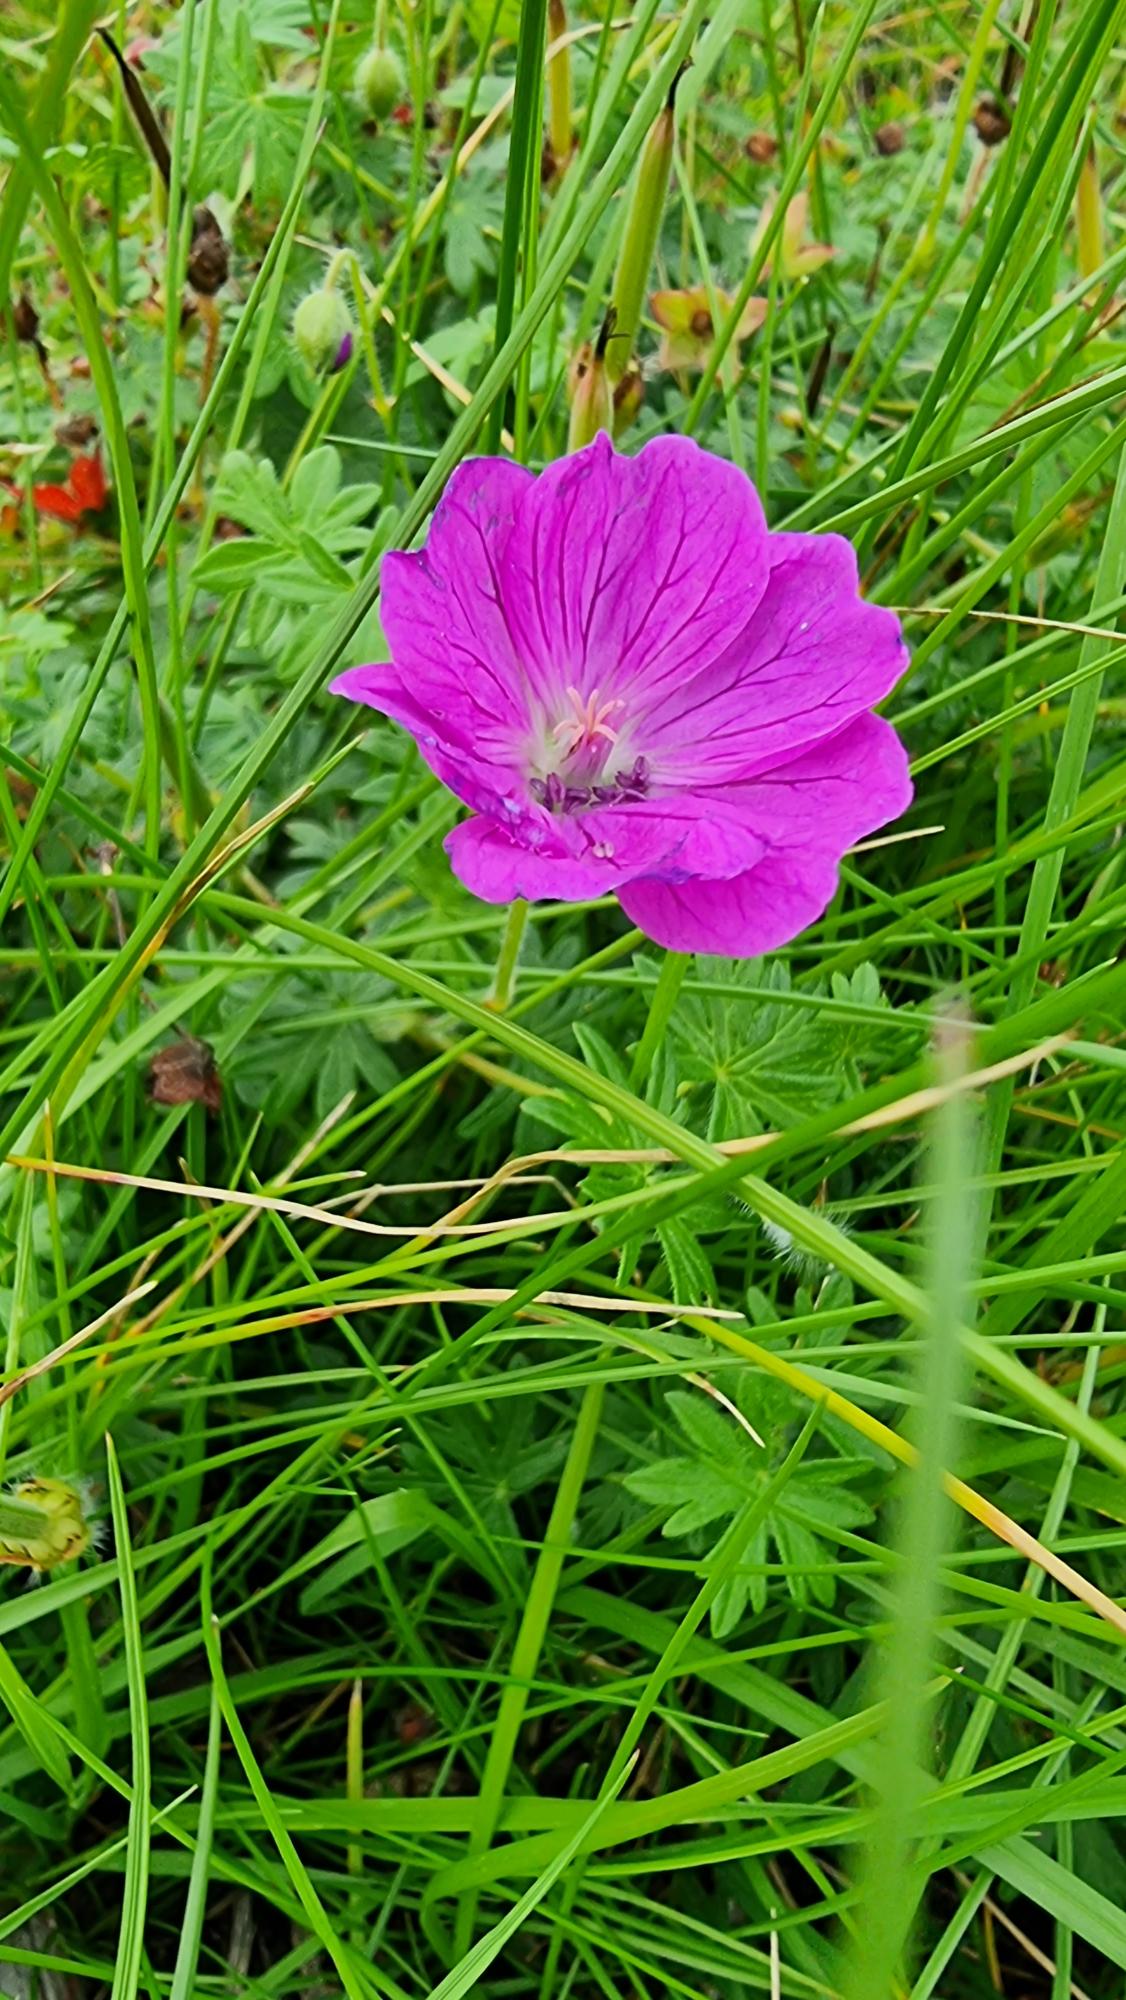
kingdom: Plantae
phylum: Tracheophyta
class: Magnoliopsida
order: Geraniales
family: Geraniaceae
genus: Geranium
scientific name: Geranium sanguineum
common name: Blodrød storkenæb
